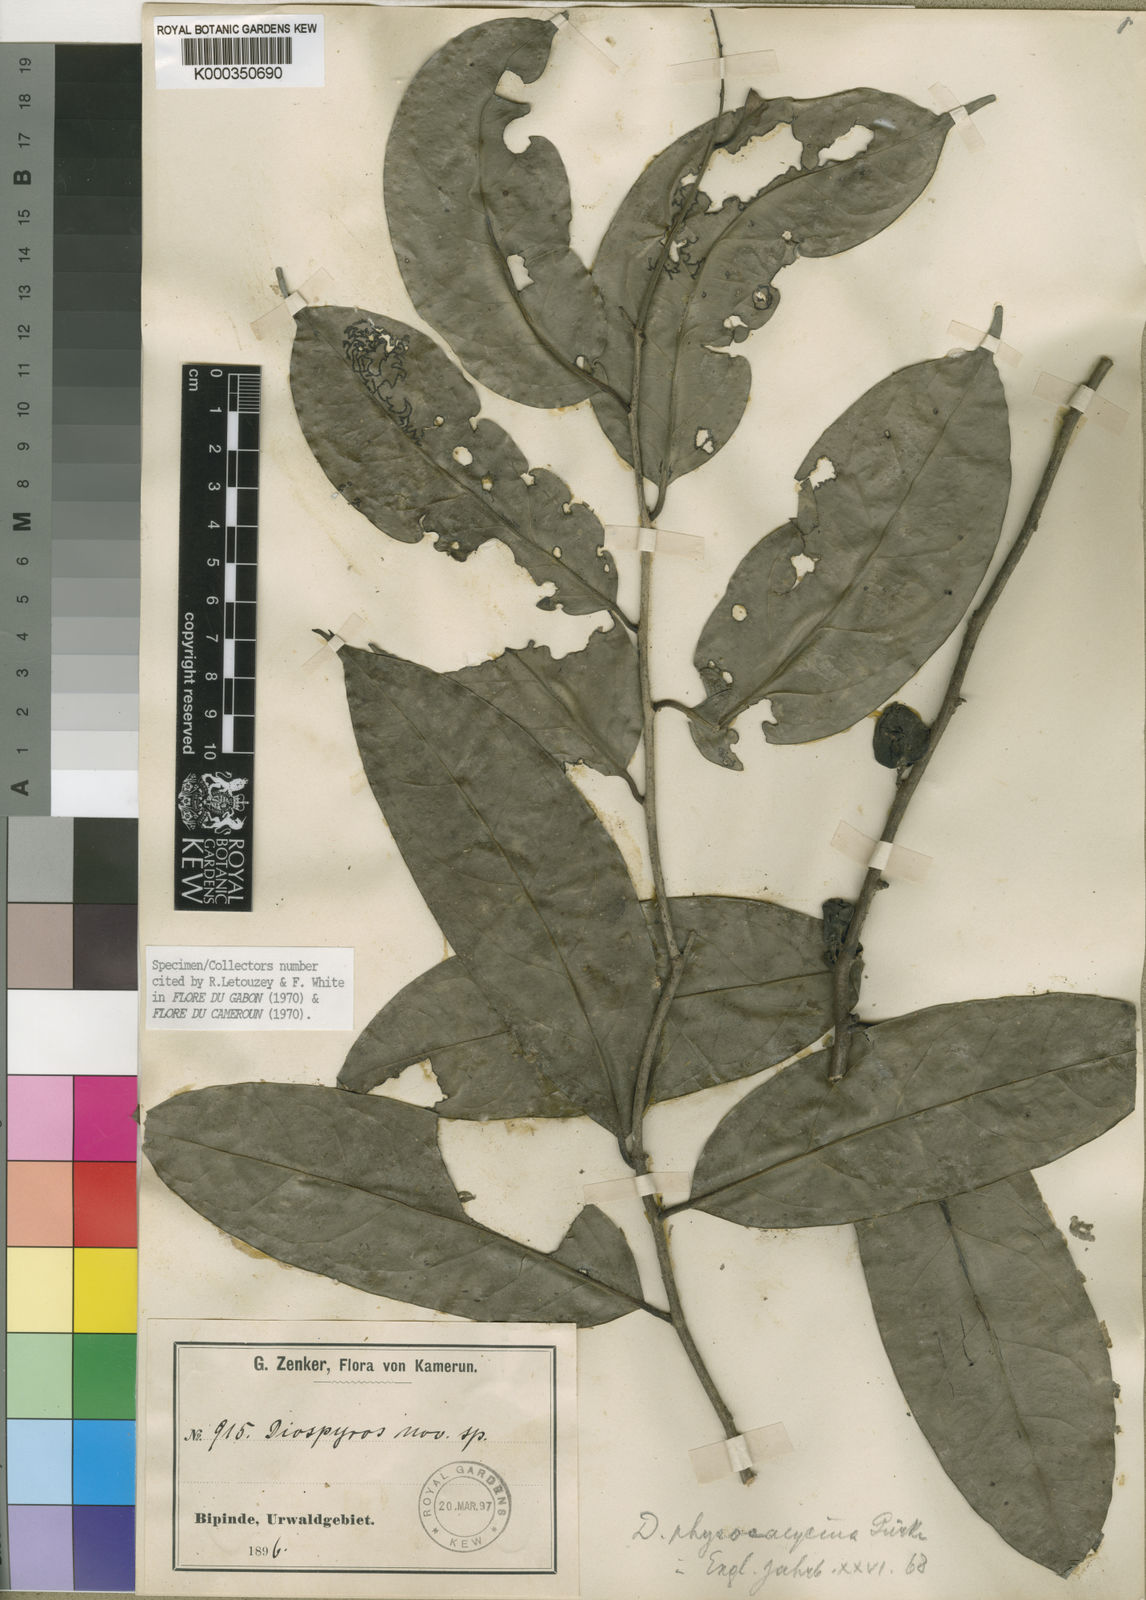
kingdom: Plantae
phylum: Tracheophyta
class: Magnoliopsida
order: Ericales
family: Ebenaceae
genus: Diospyros
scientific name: Diospyros
